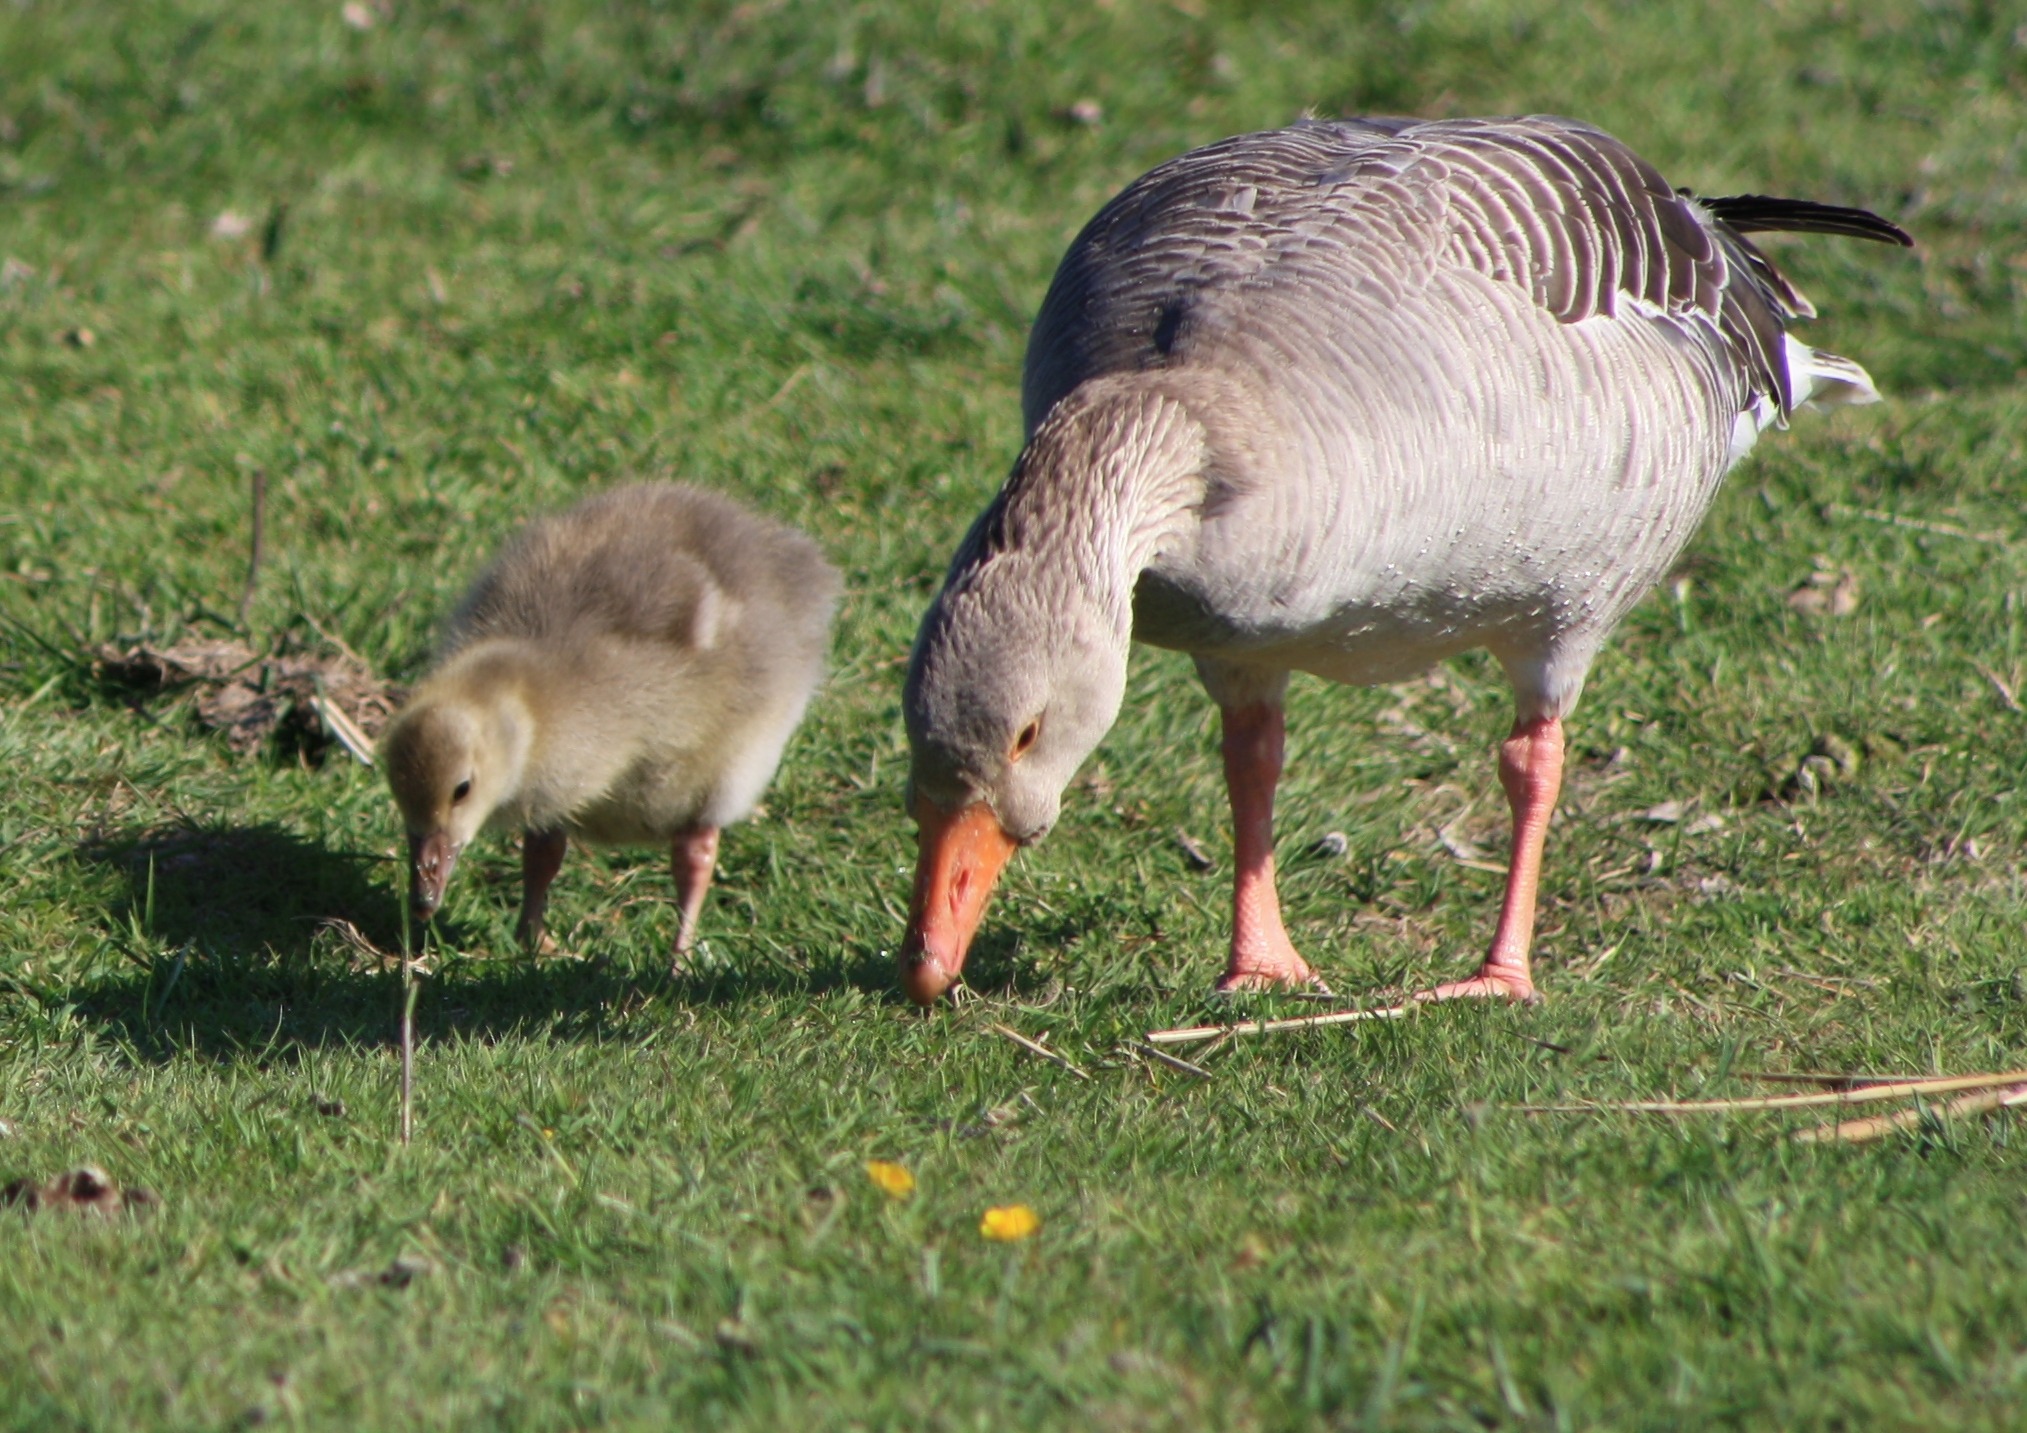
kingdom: Animalia
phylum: Chordata
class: Aves
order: Anseriformes
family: Anatidae
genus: Anser
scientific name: Anser anser
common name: Grågås
